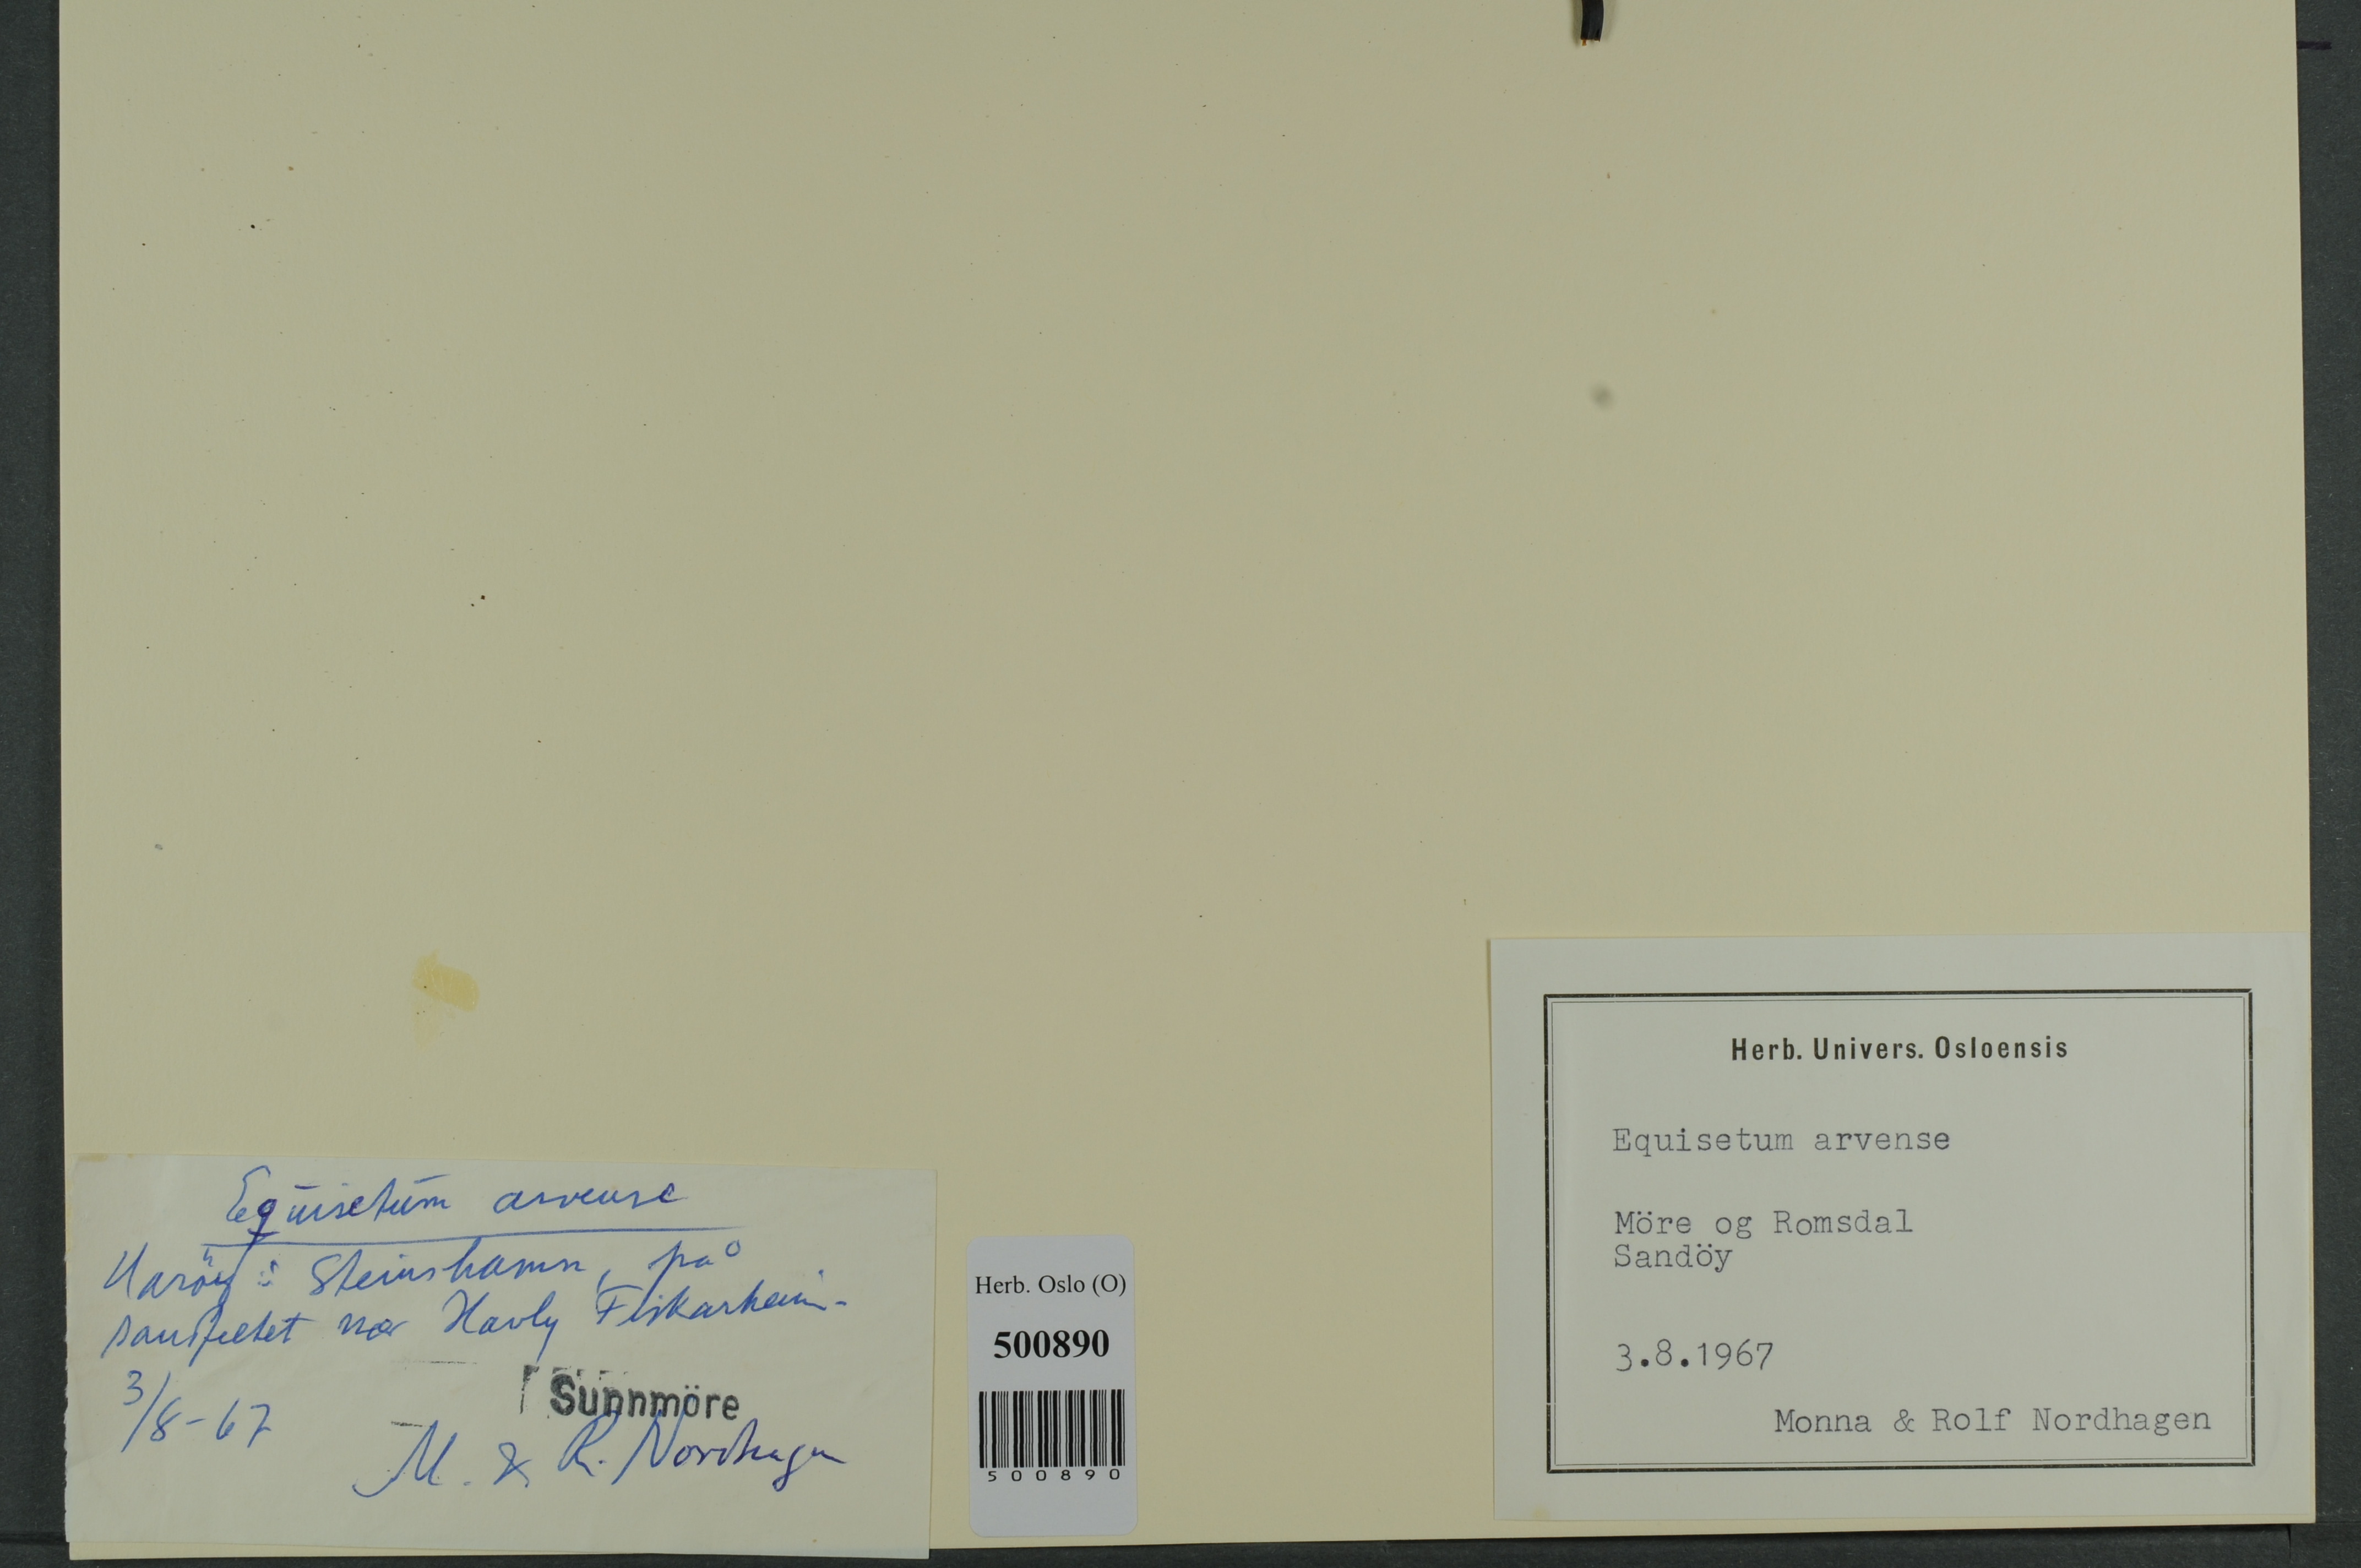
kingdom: Plantae
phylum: Tracheophyta
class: Polypodiopsida
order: Equisetales
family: Equisetaceae
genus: Equisetum
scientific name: Equisetum arvense
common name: Field horsetail
